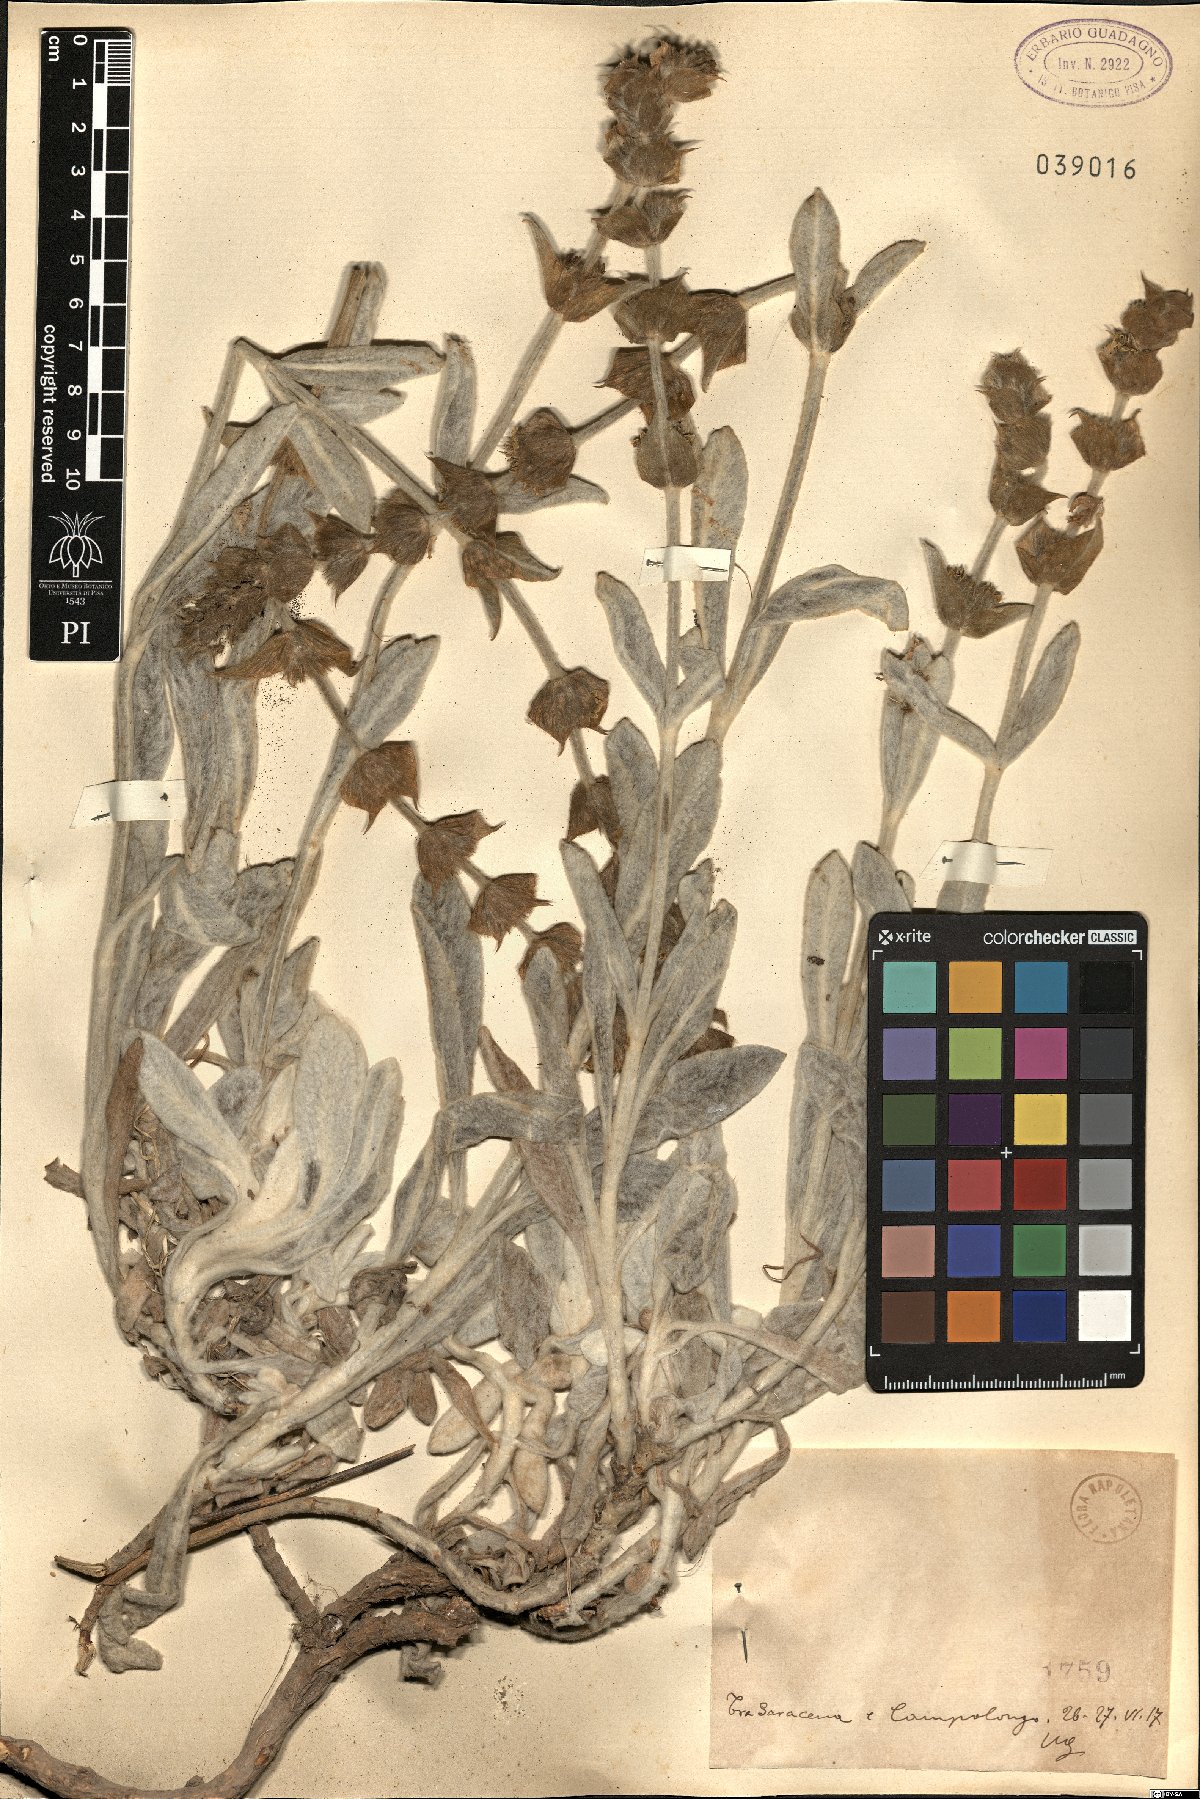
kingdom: Plantae
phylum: Tracheophyta
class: Magnoliopsida
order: Lamiales
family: Lamiaceae
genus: Sideritis
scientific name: Sideritis
